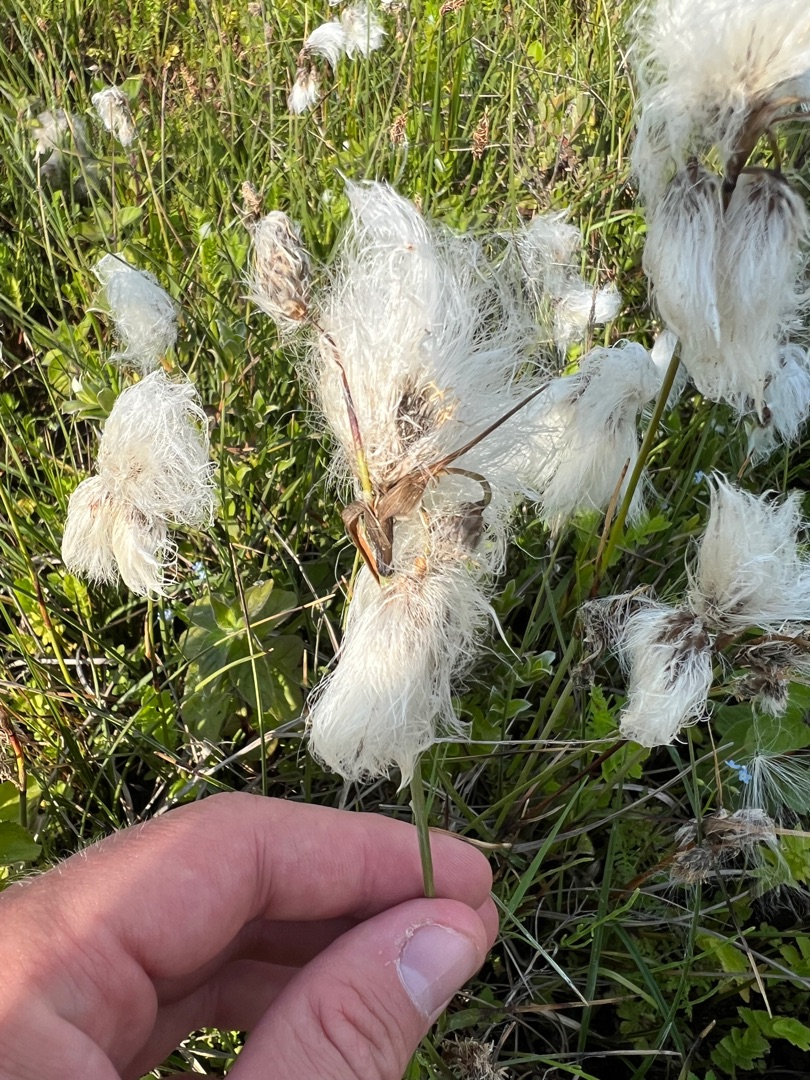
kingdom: Plantae
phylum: Tracheophyta
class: Liliopsida
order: Poales
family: Cyperaceae
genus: Eriophorum
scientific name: Eriophorum angustifolium
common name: Smalbladet kæruld
